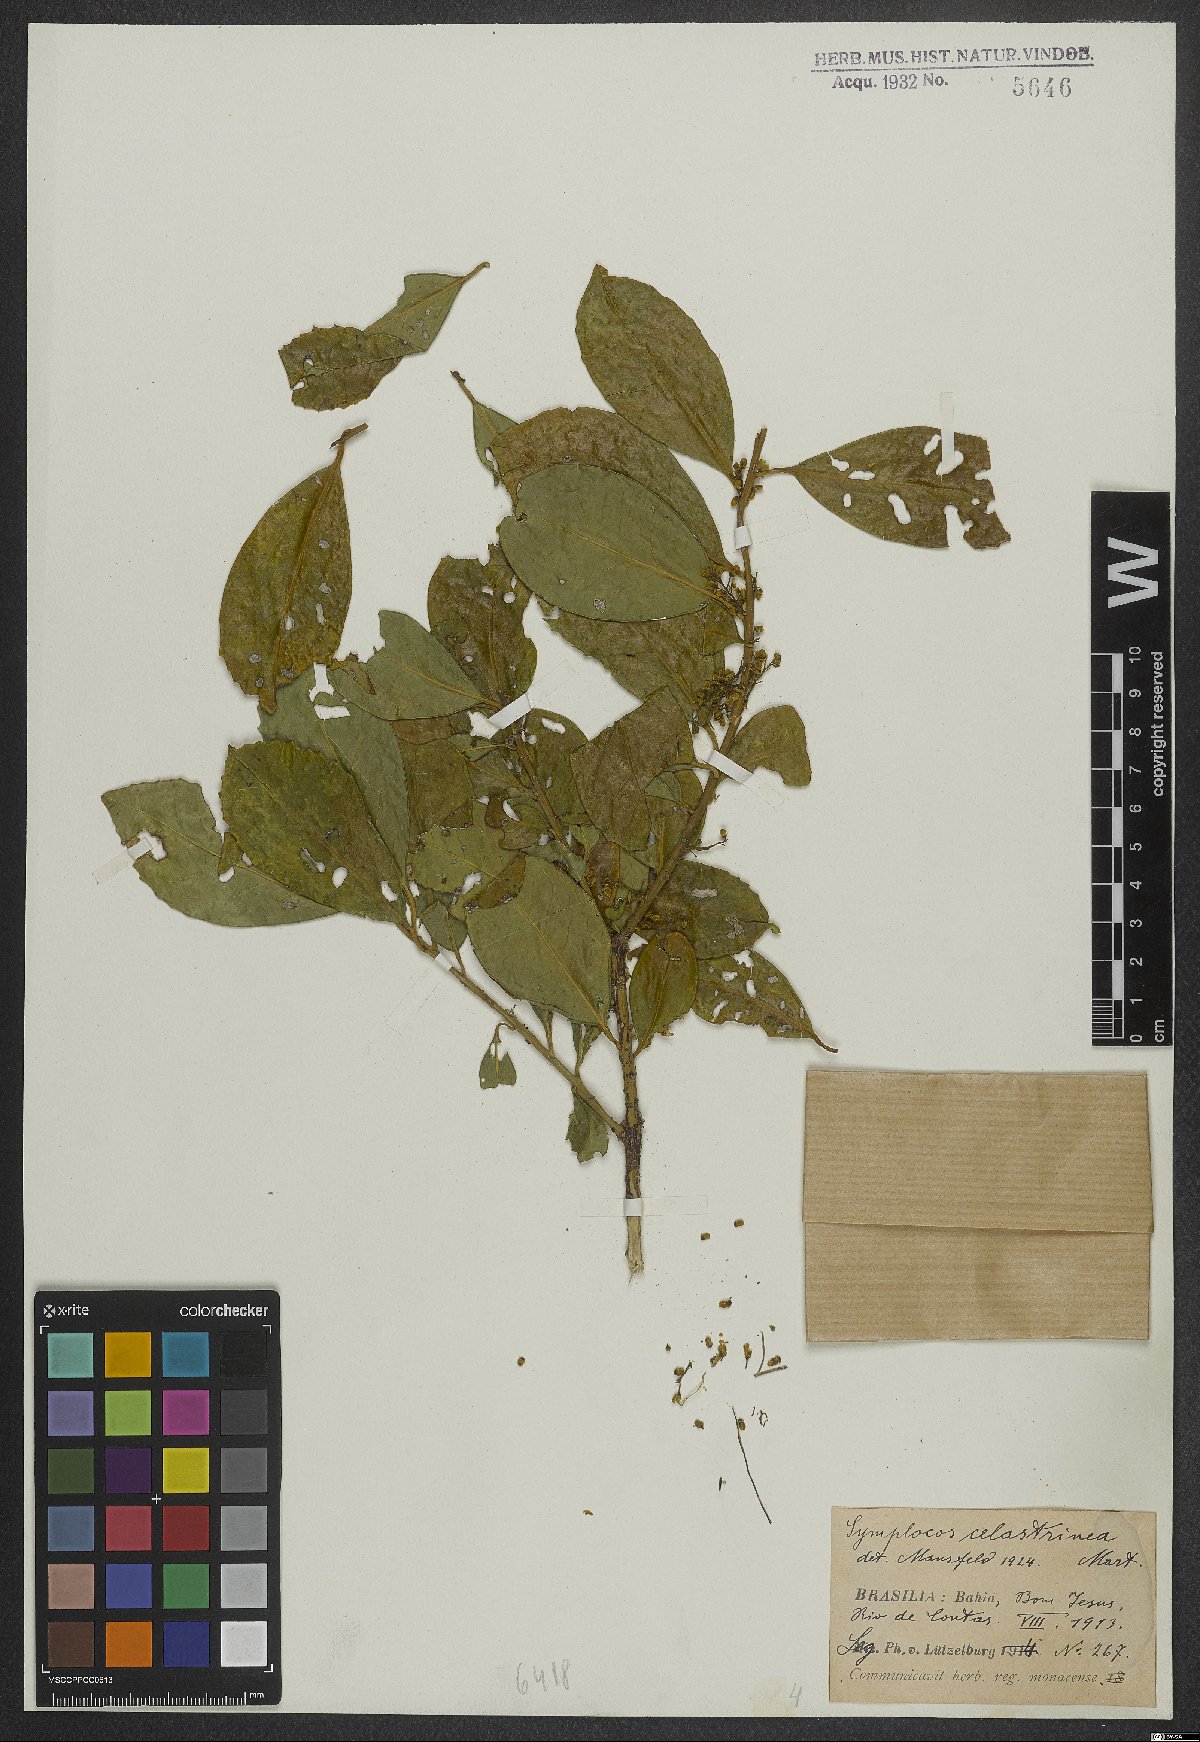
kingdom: Plantae
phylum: Tracheophyta
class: Magnoliopsida
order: Ericales
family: Symplocaceae
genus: Symplocos
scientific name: Symplocos celastrinea
